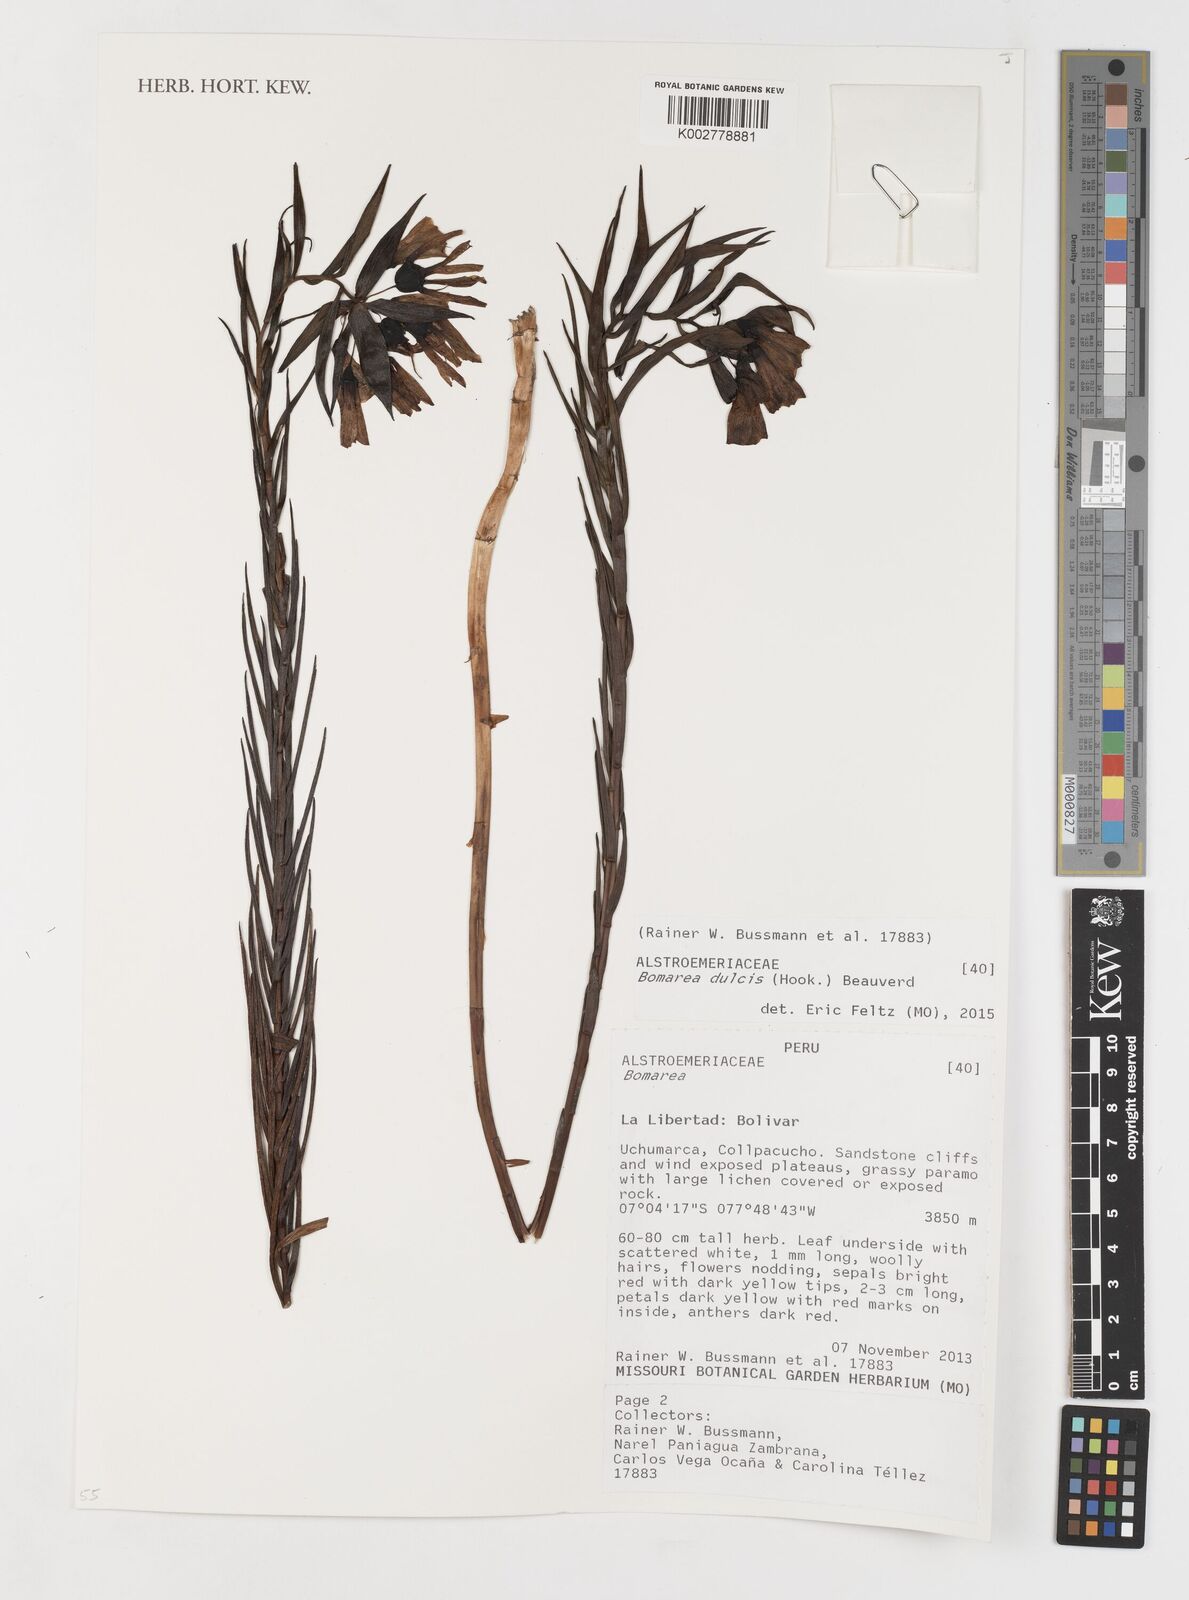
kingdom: Plantae
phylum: Tracheophyta
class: Liliopsida
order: Liliales
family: Alstroemeriaceae
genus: Bomarea
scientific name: Bomarea dulcis
